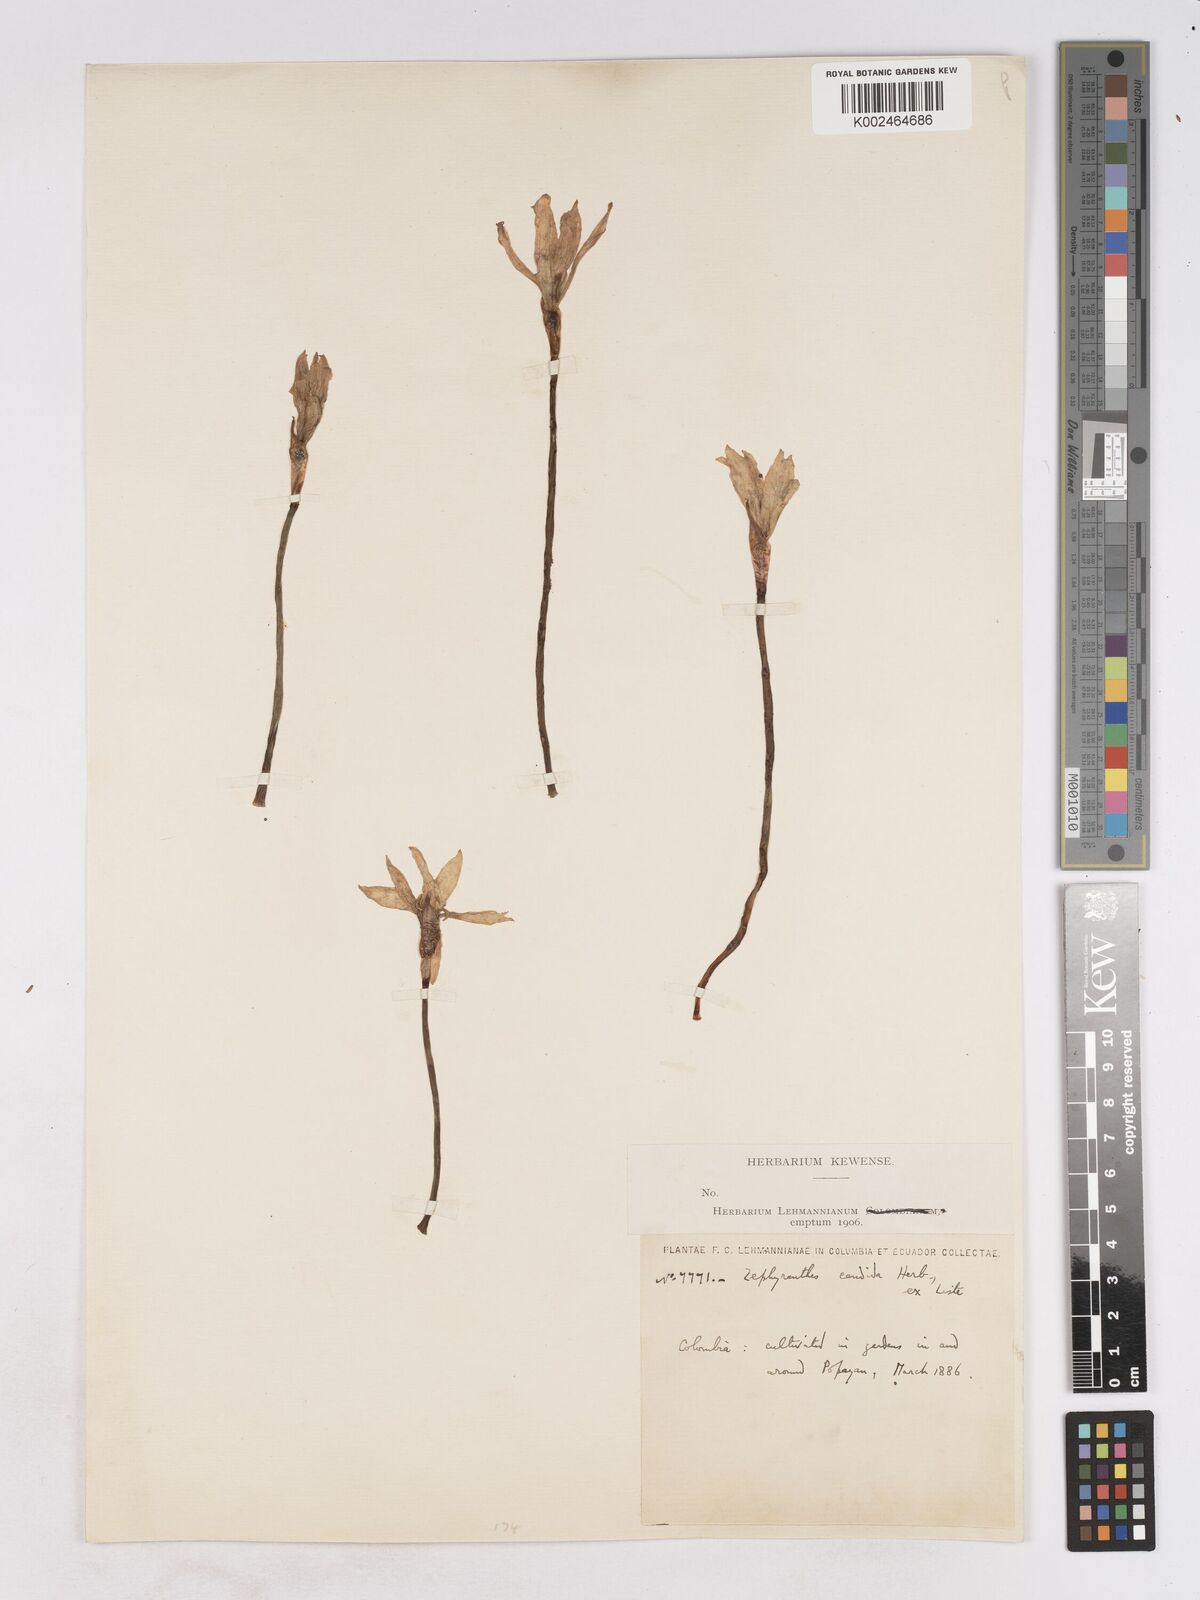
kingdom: Plantae
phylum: Tracheophyta
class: Liliopsida
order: Asparagales
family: Amaryllidaceae
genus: Zephyranthes
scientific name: Zephyranthes candida
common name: Autumn zephyrlily
